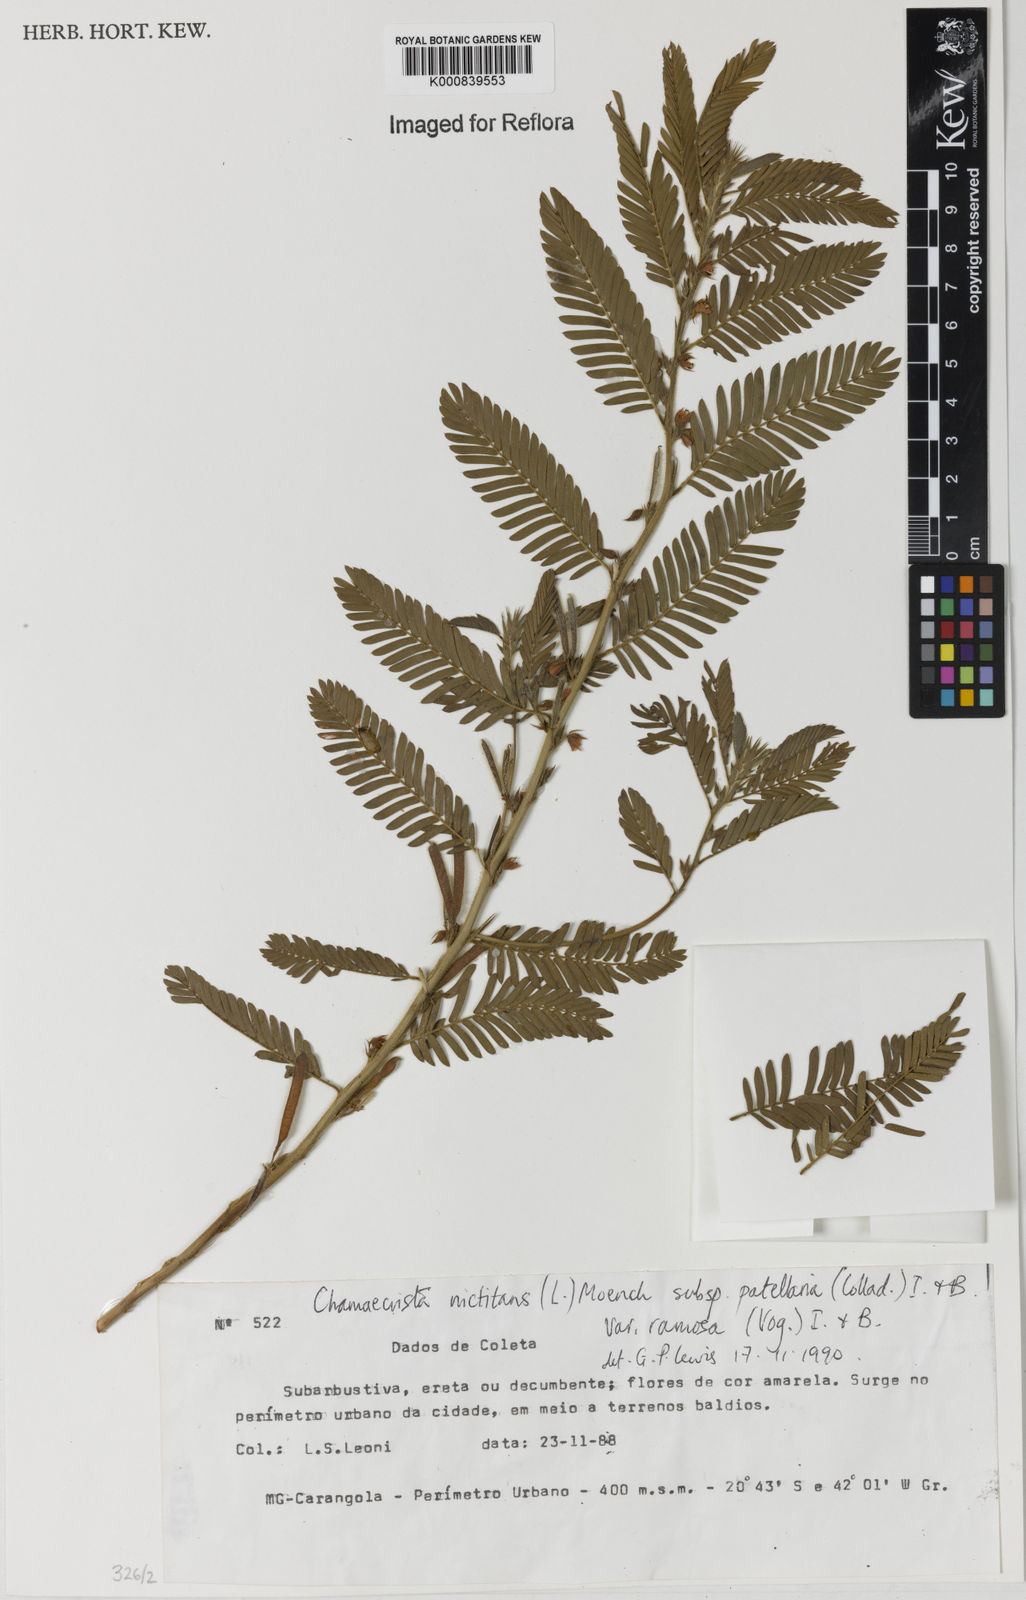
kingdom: Plantae
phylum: Tracheophyta
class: Magnoliopsida
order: Fabales
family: Fabaceae
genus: Chamaecrista
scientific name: Chamaecrista nictitans
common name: Sensitive cassia
